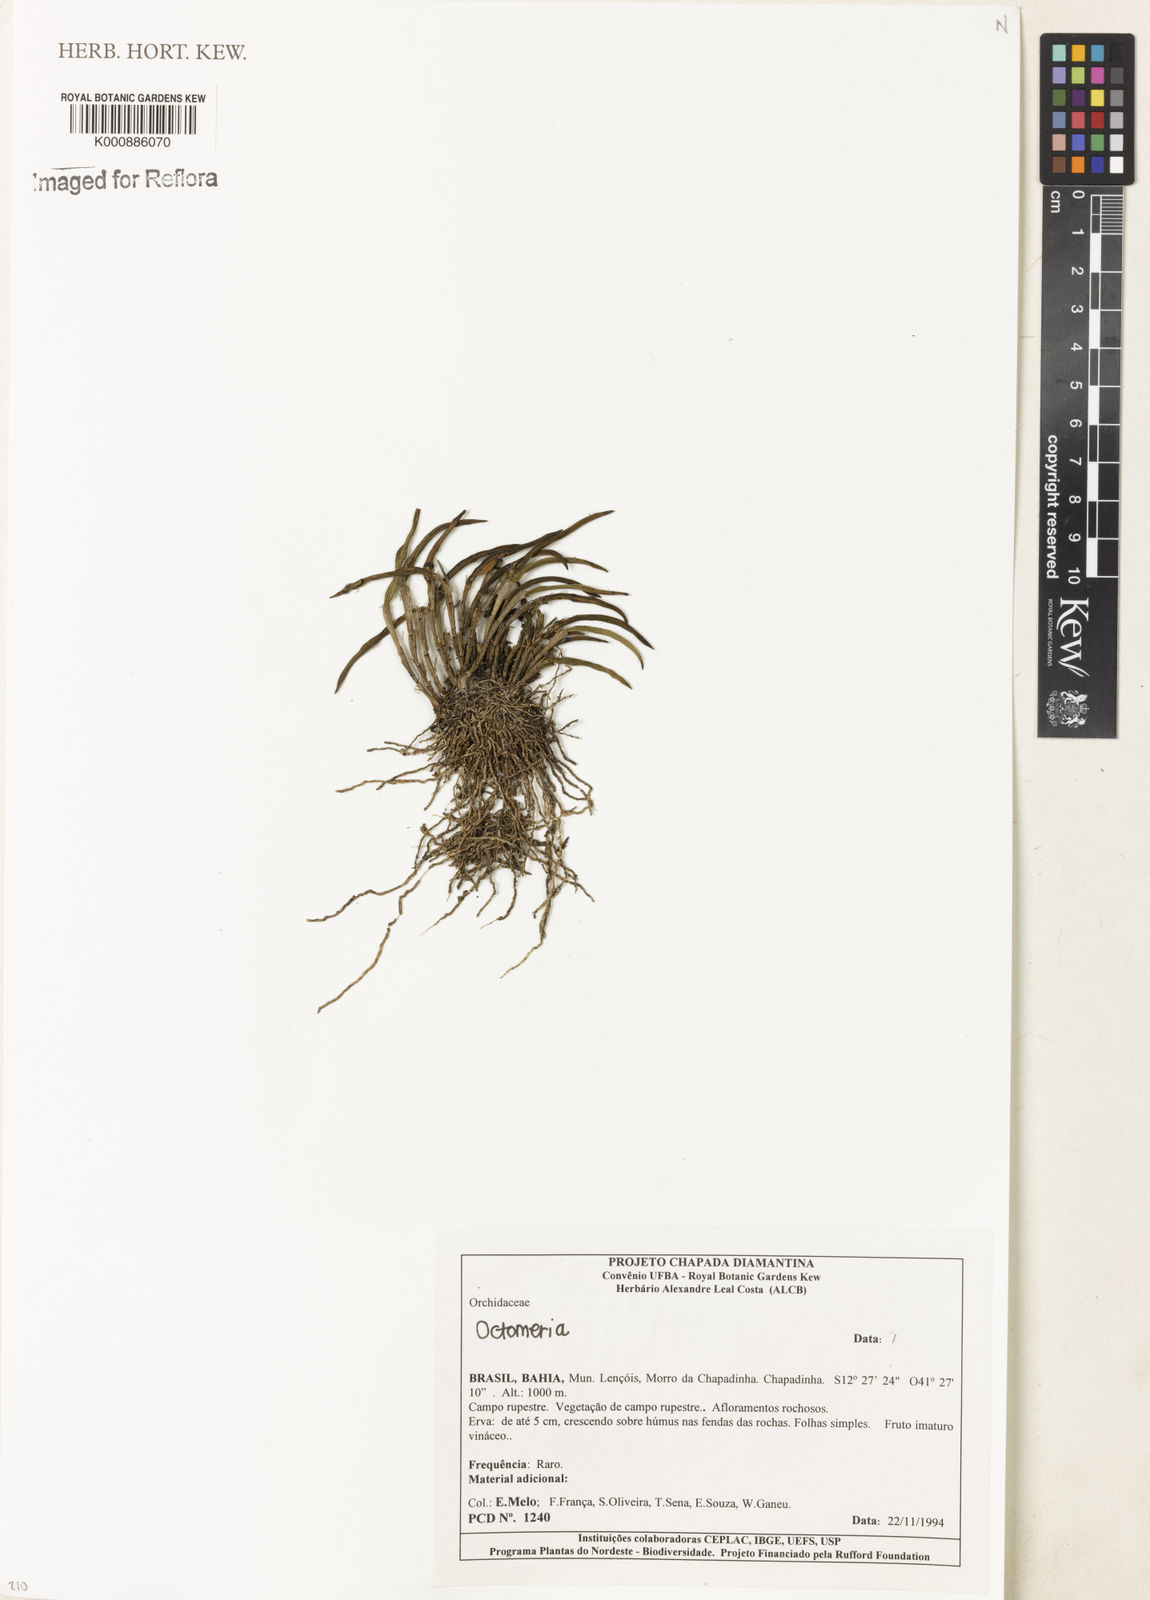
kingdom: Plantae
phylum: Tracheophyta
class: Liliopsida
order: Asparagales
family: Orchidaceae
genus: Octomeria
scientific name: Octomeria
